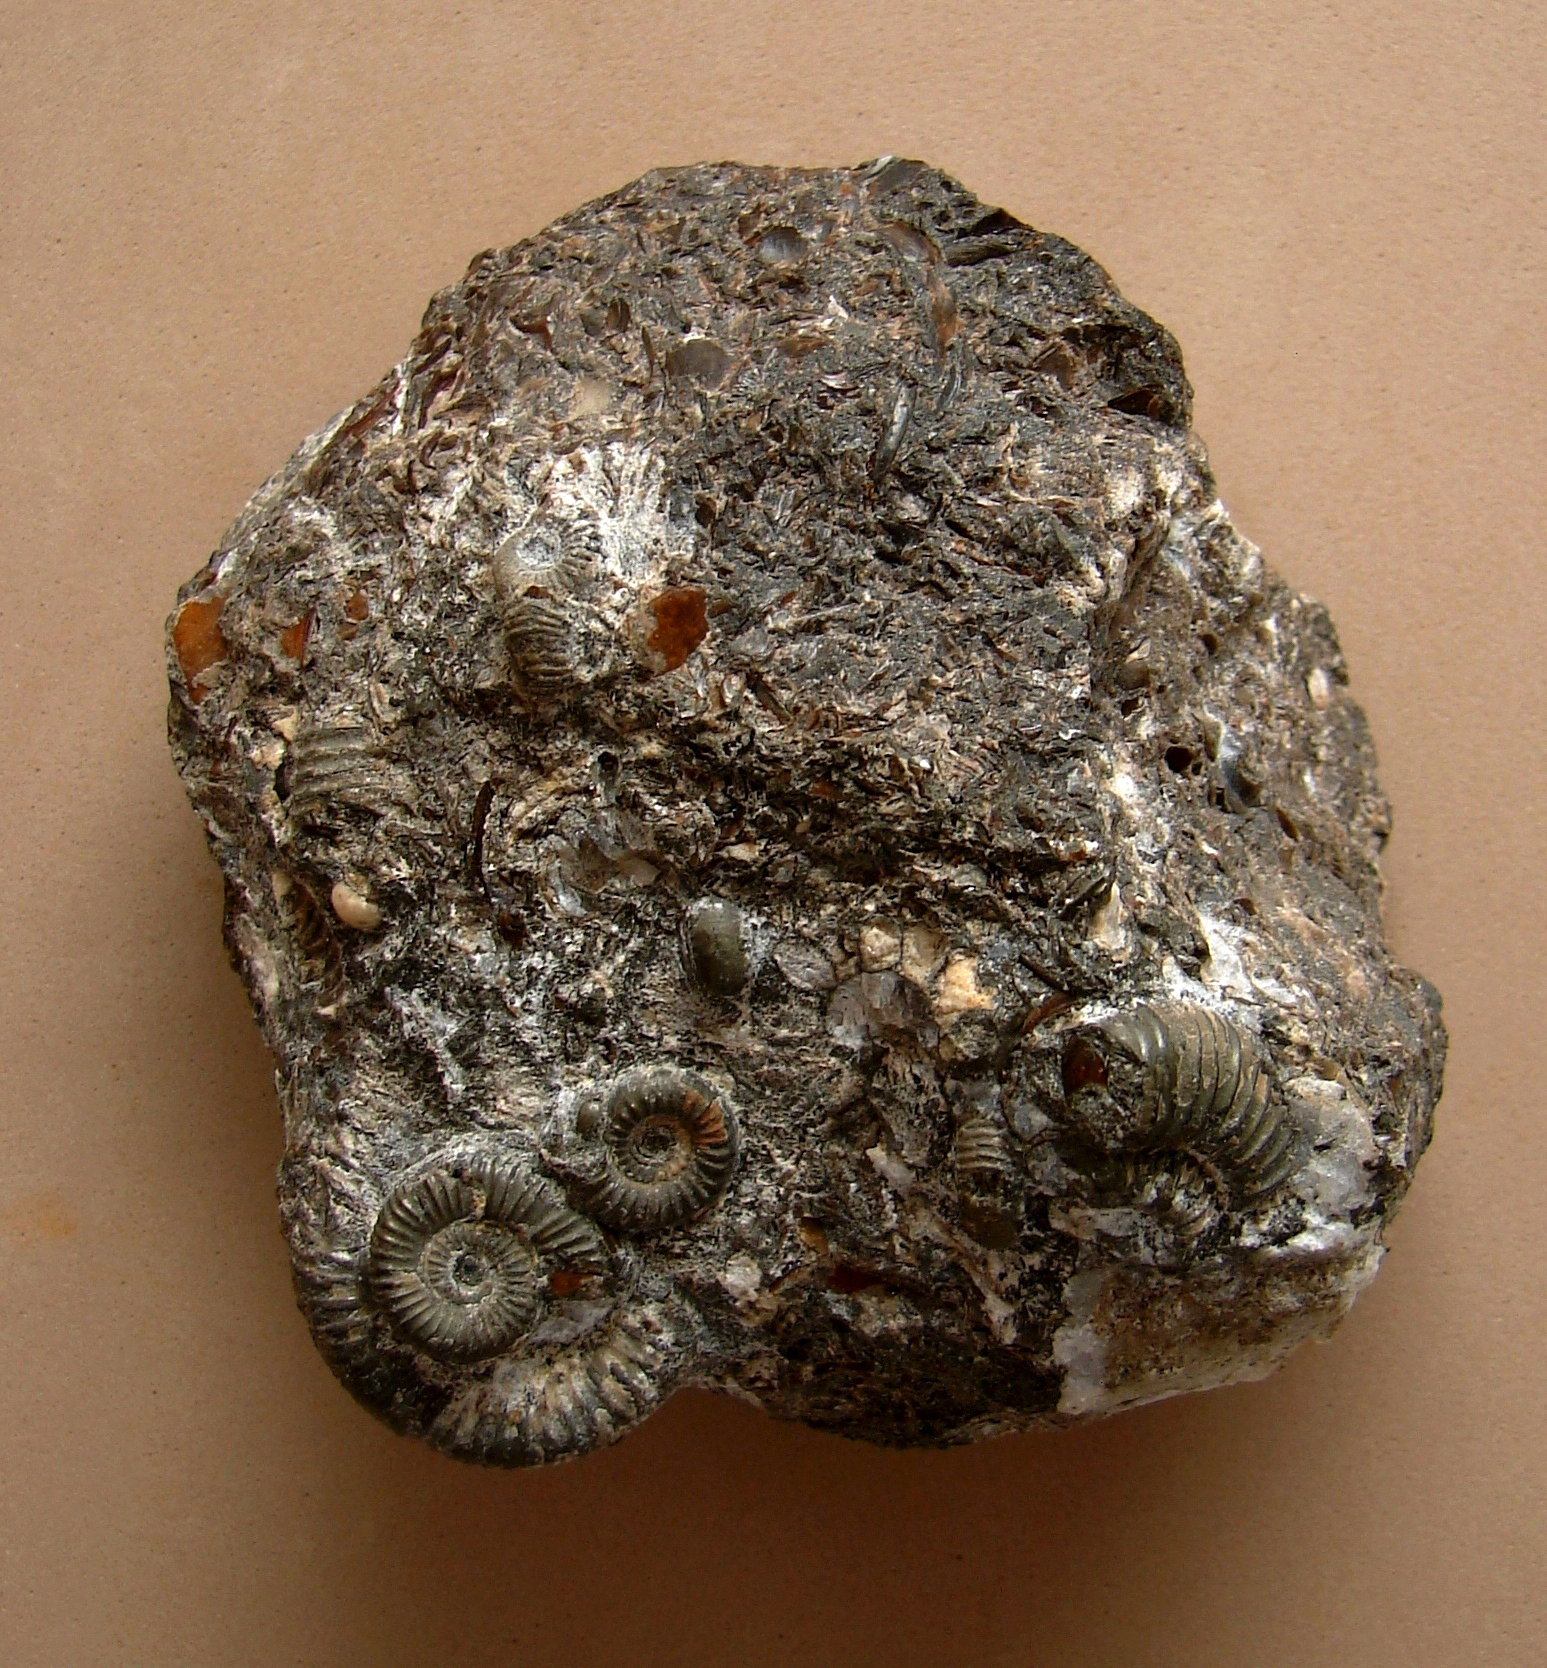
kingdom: Animalia
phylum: Mollusca
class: Cephalopoda
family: Dactylioceratidae
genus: Dactylioceras
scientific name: Dactylioceras
